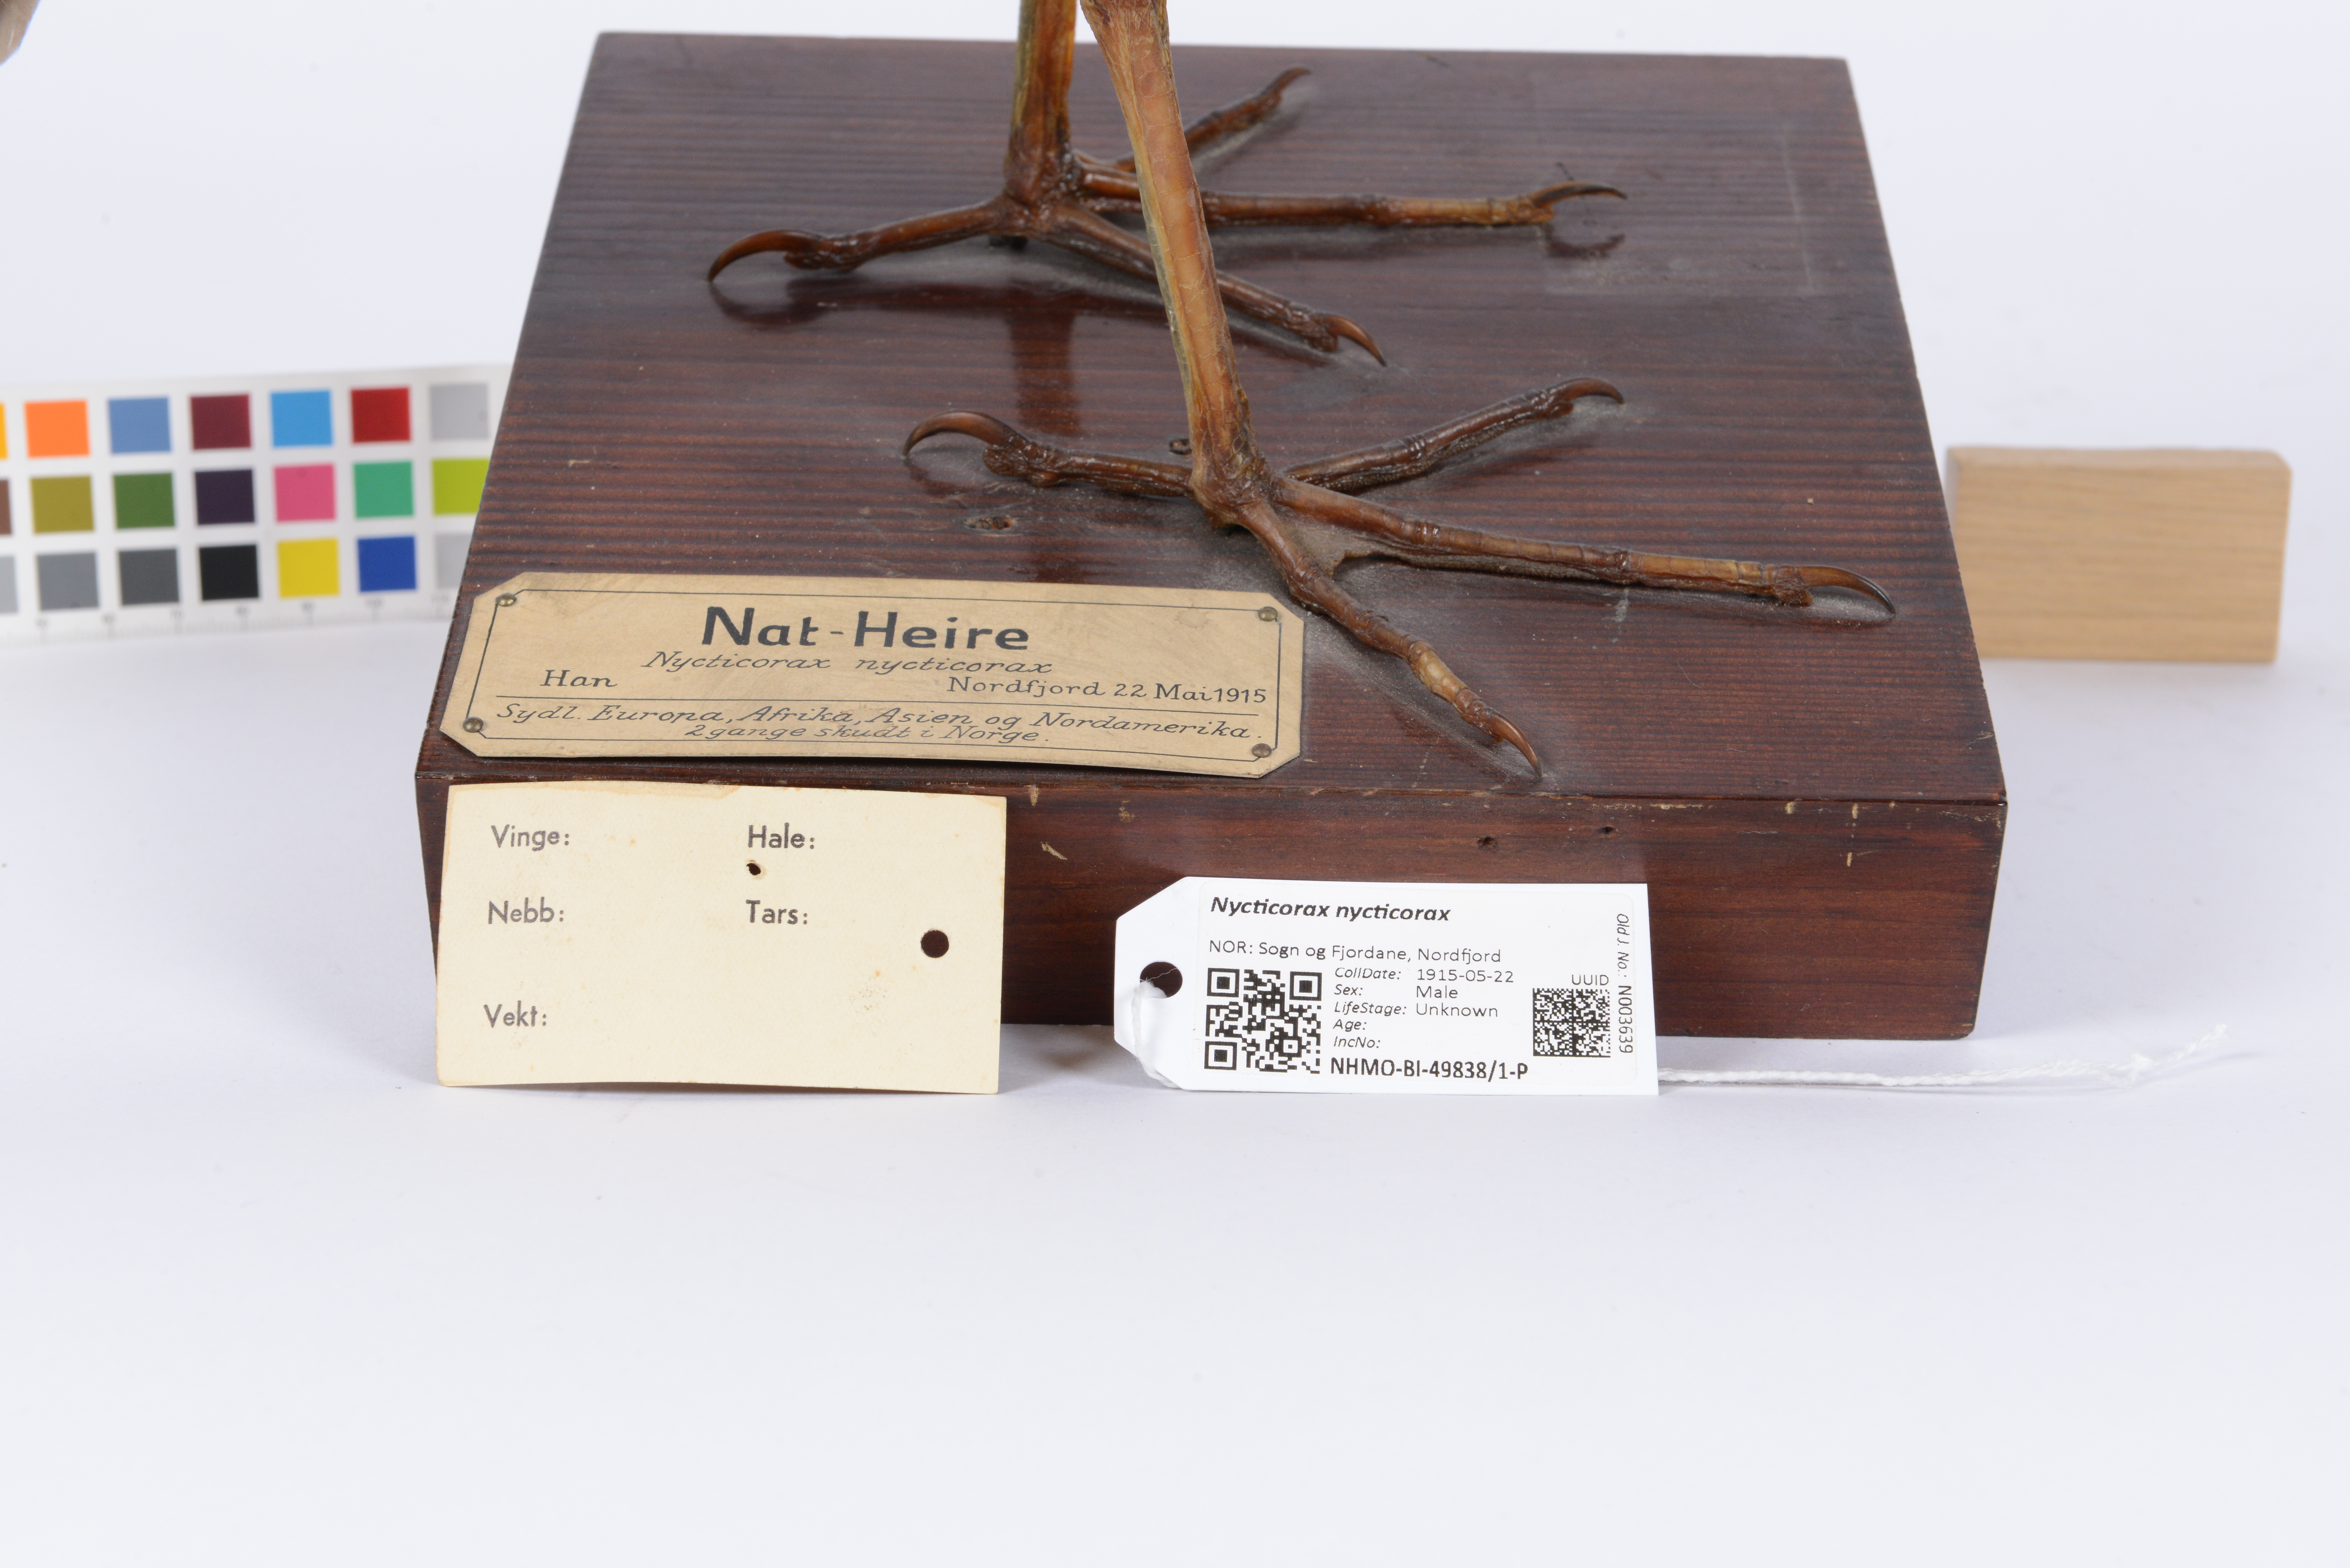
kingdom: Animalia
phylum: Chordata
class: Aves
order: Pelecaniformes
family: Ardeidae
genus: Nycticorax
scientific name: Nycticorax nycticorax
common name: Black-crowned night heron
